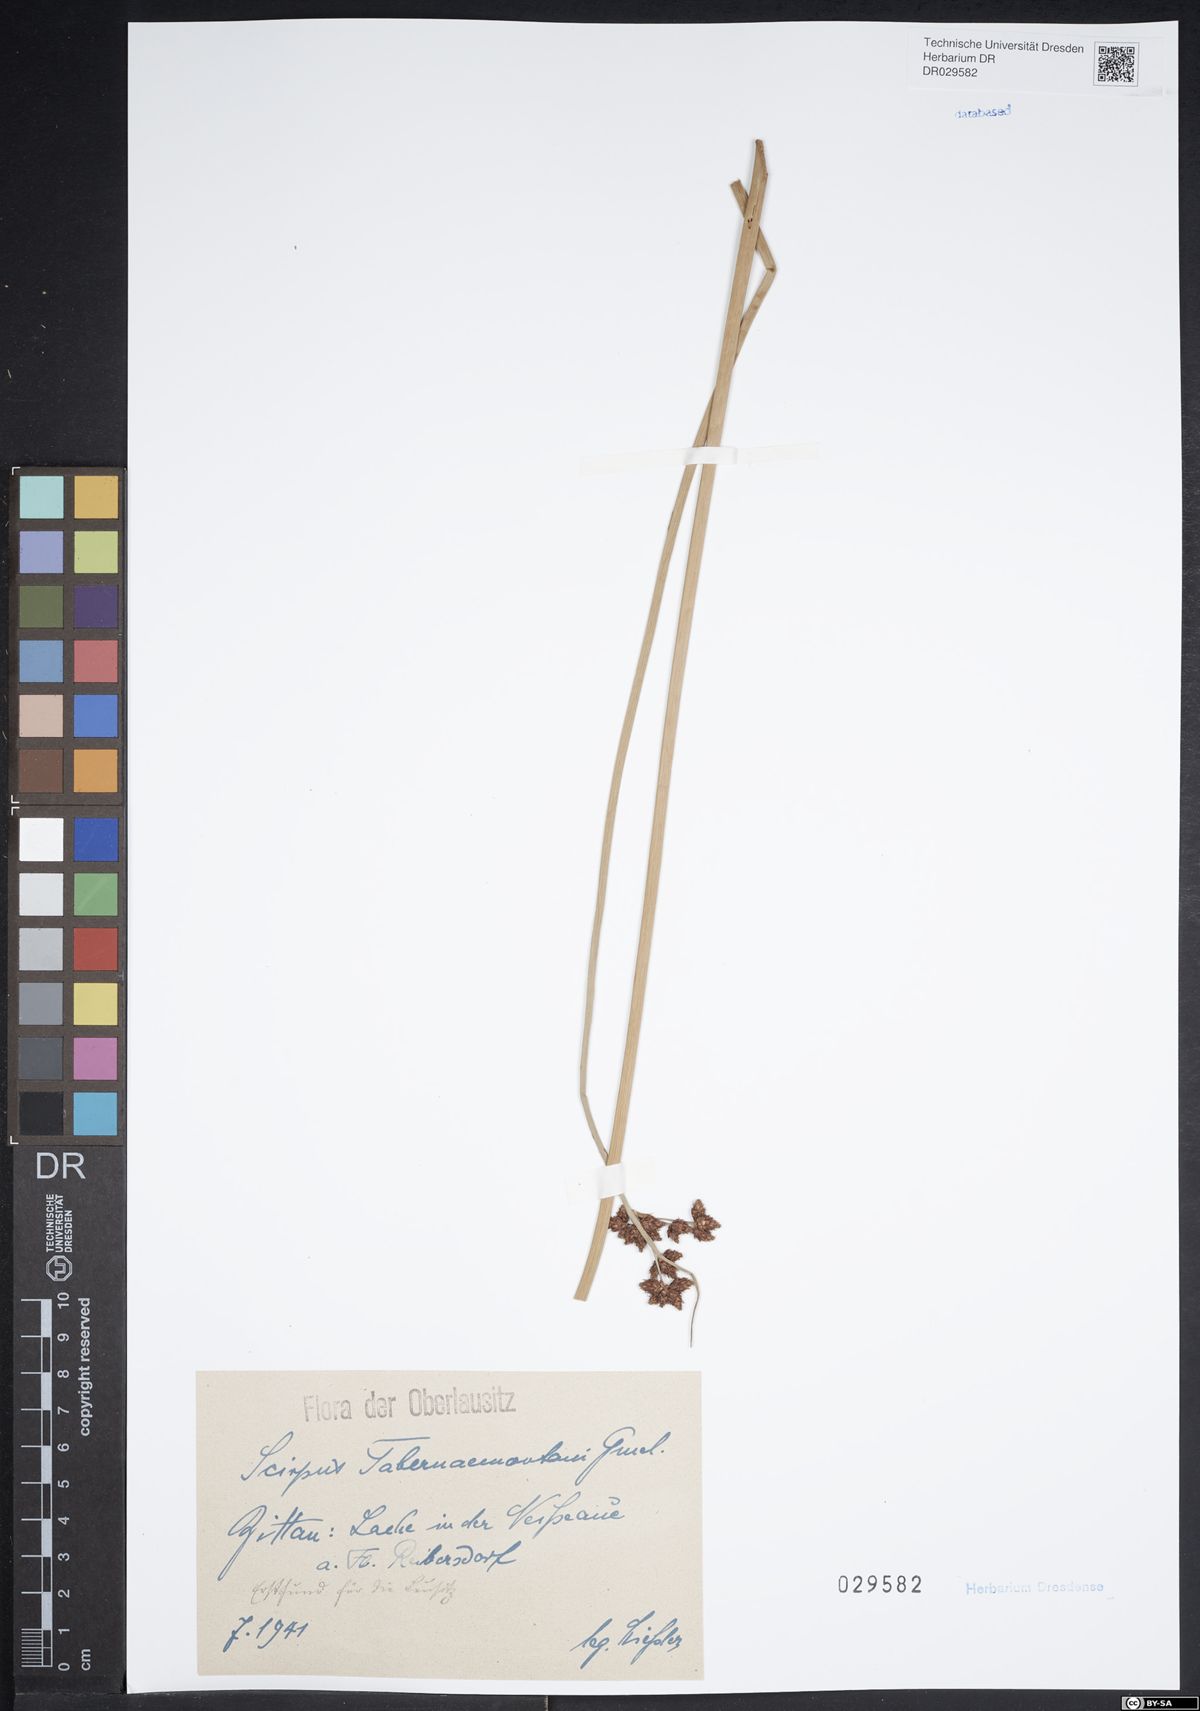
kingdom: Plantae
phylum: Tracheophyta
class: Liliopsida
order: Poales
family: Cyperaceae
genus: Schoenoplectus
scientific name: Schoenoplectus tabernaemontani
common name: Grey club-rush
